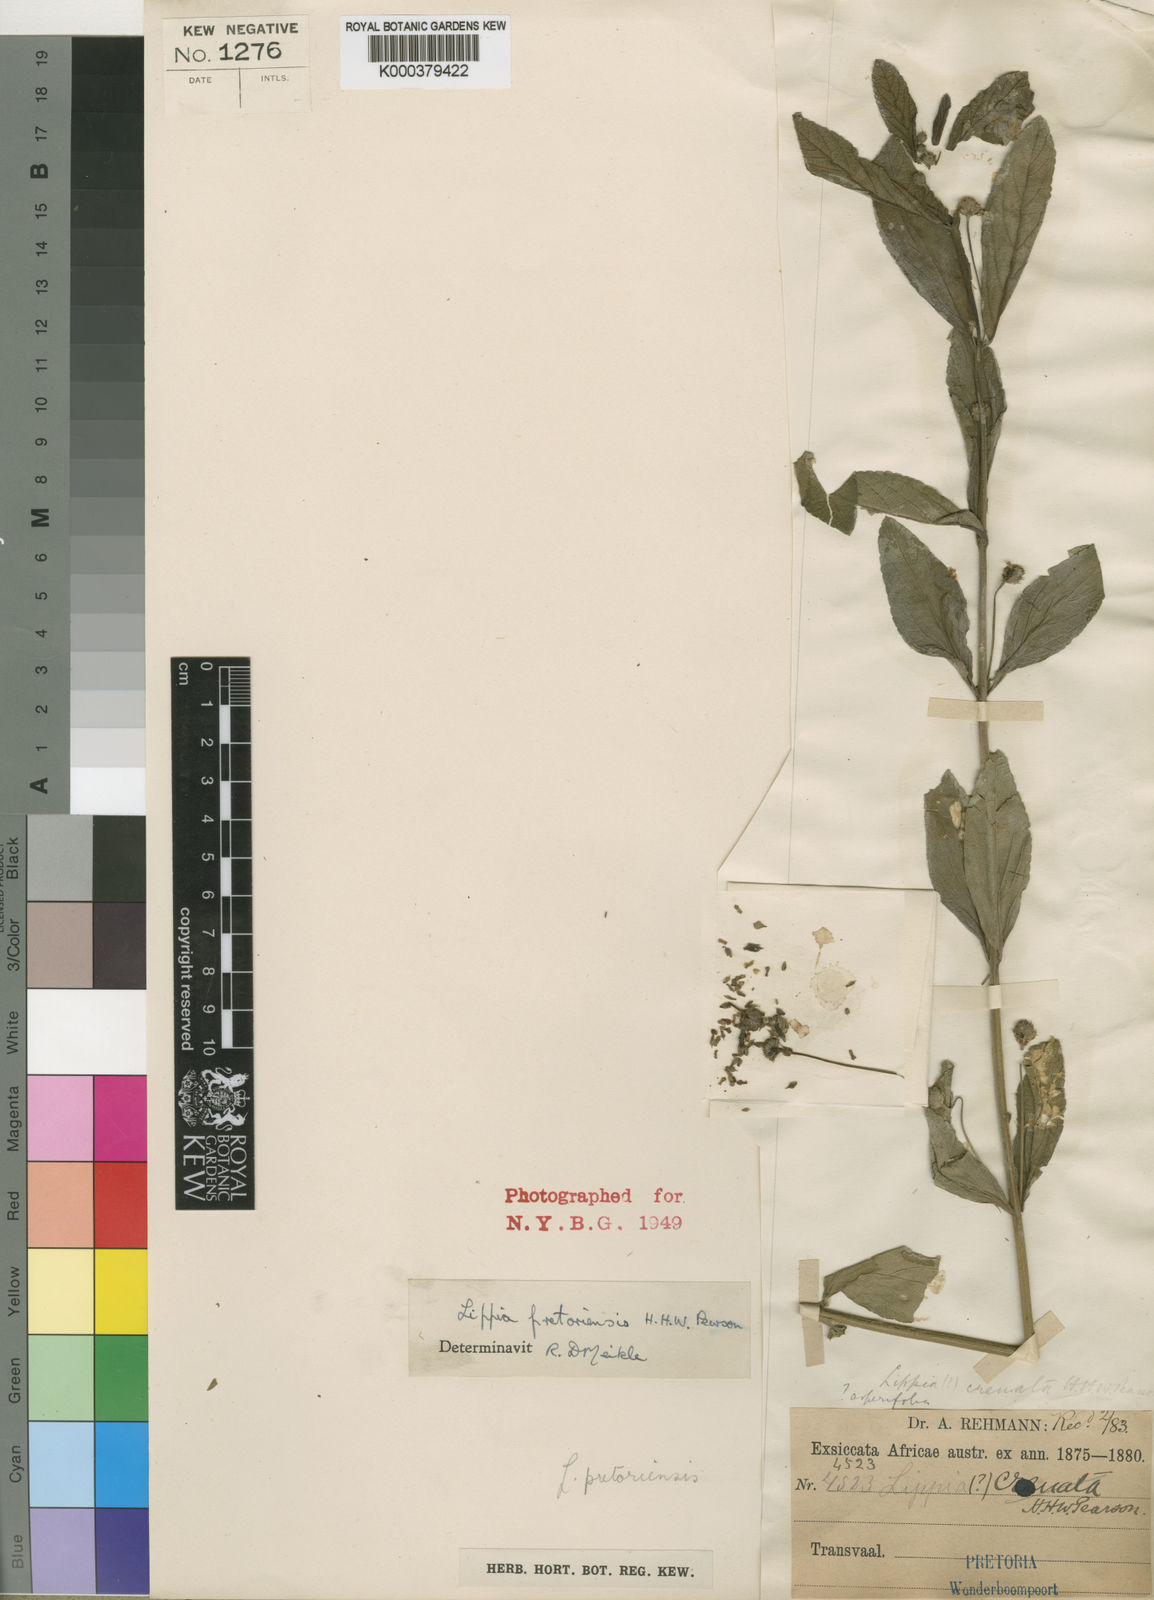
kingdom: Plantae
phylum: Tracheophyta
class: Magnoliopsida
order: Lamiales
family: Verbenaceae
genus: Lippia
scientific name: Lippia rehmannii
